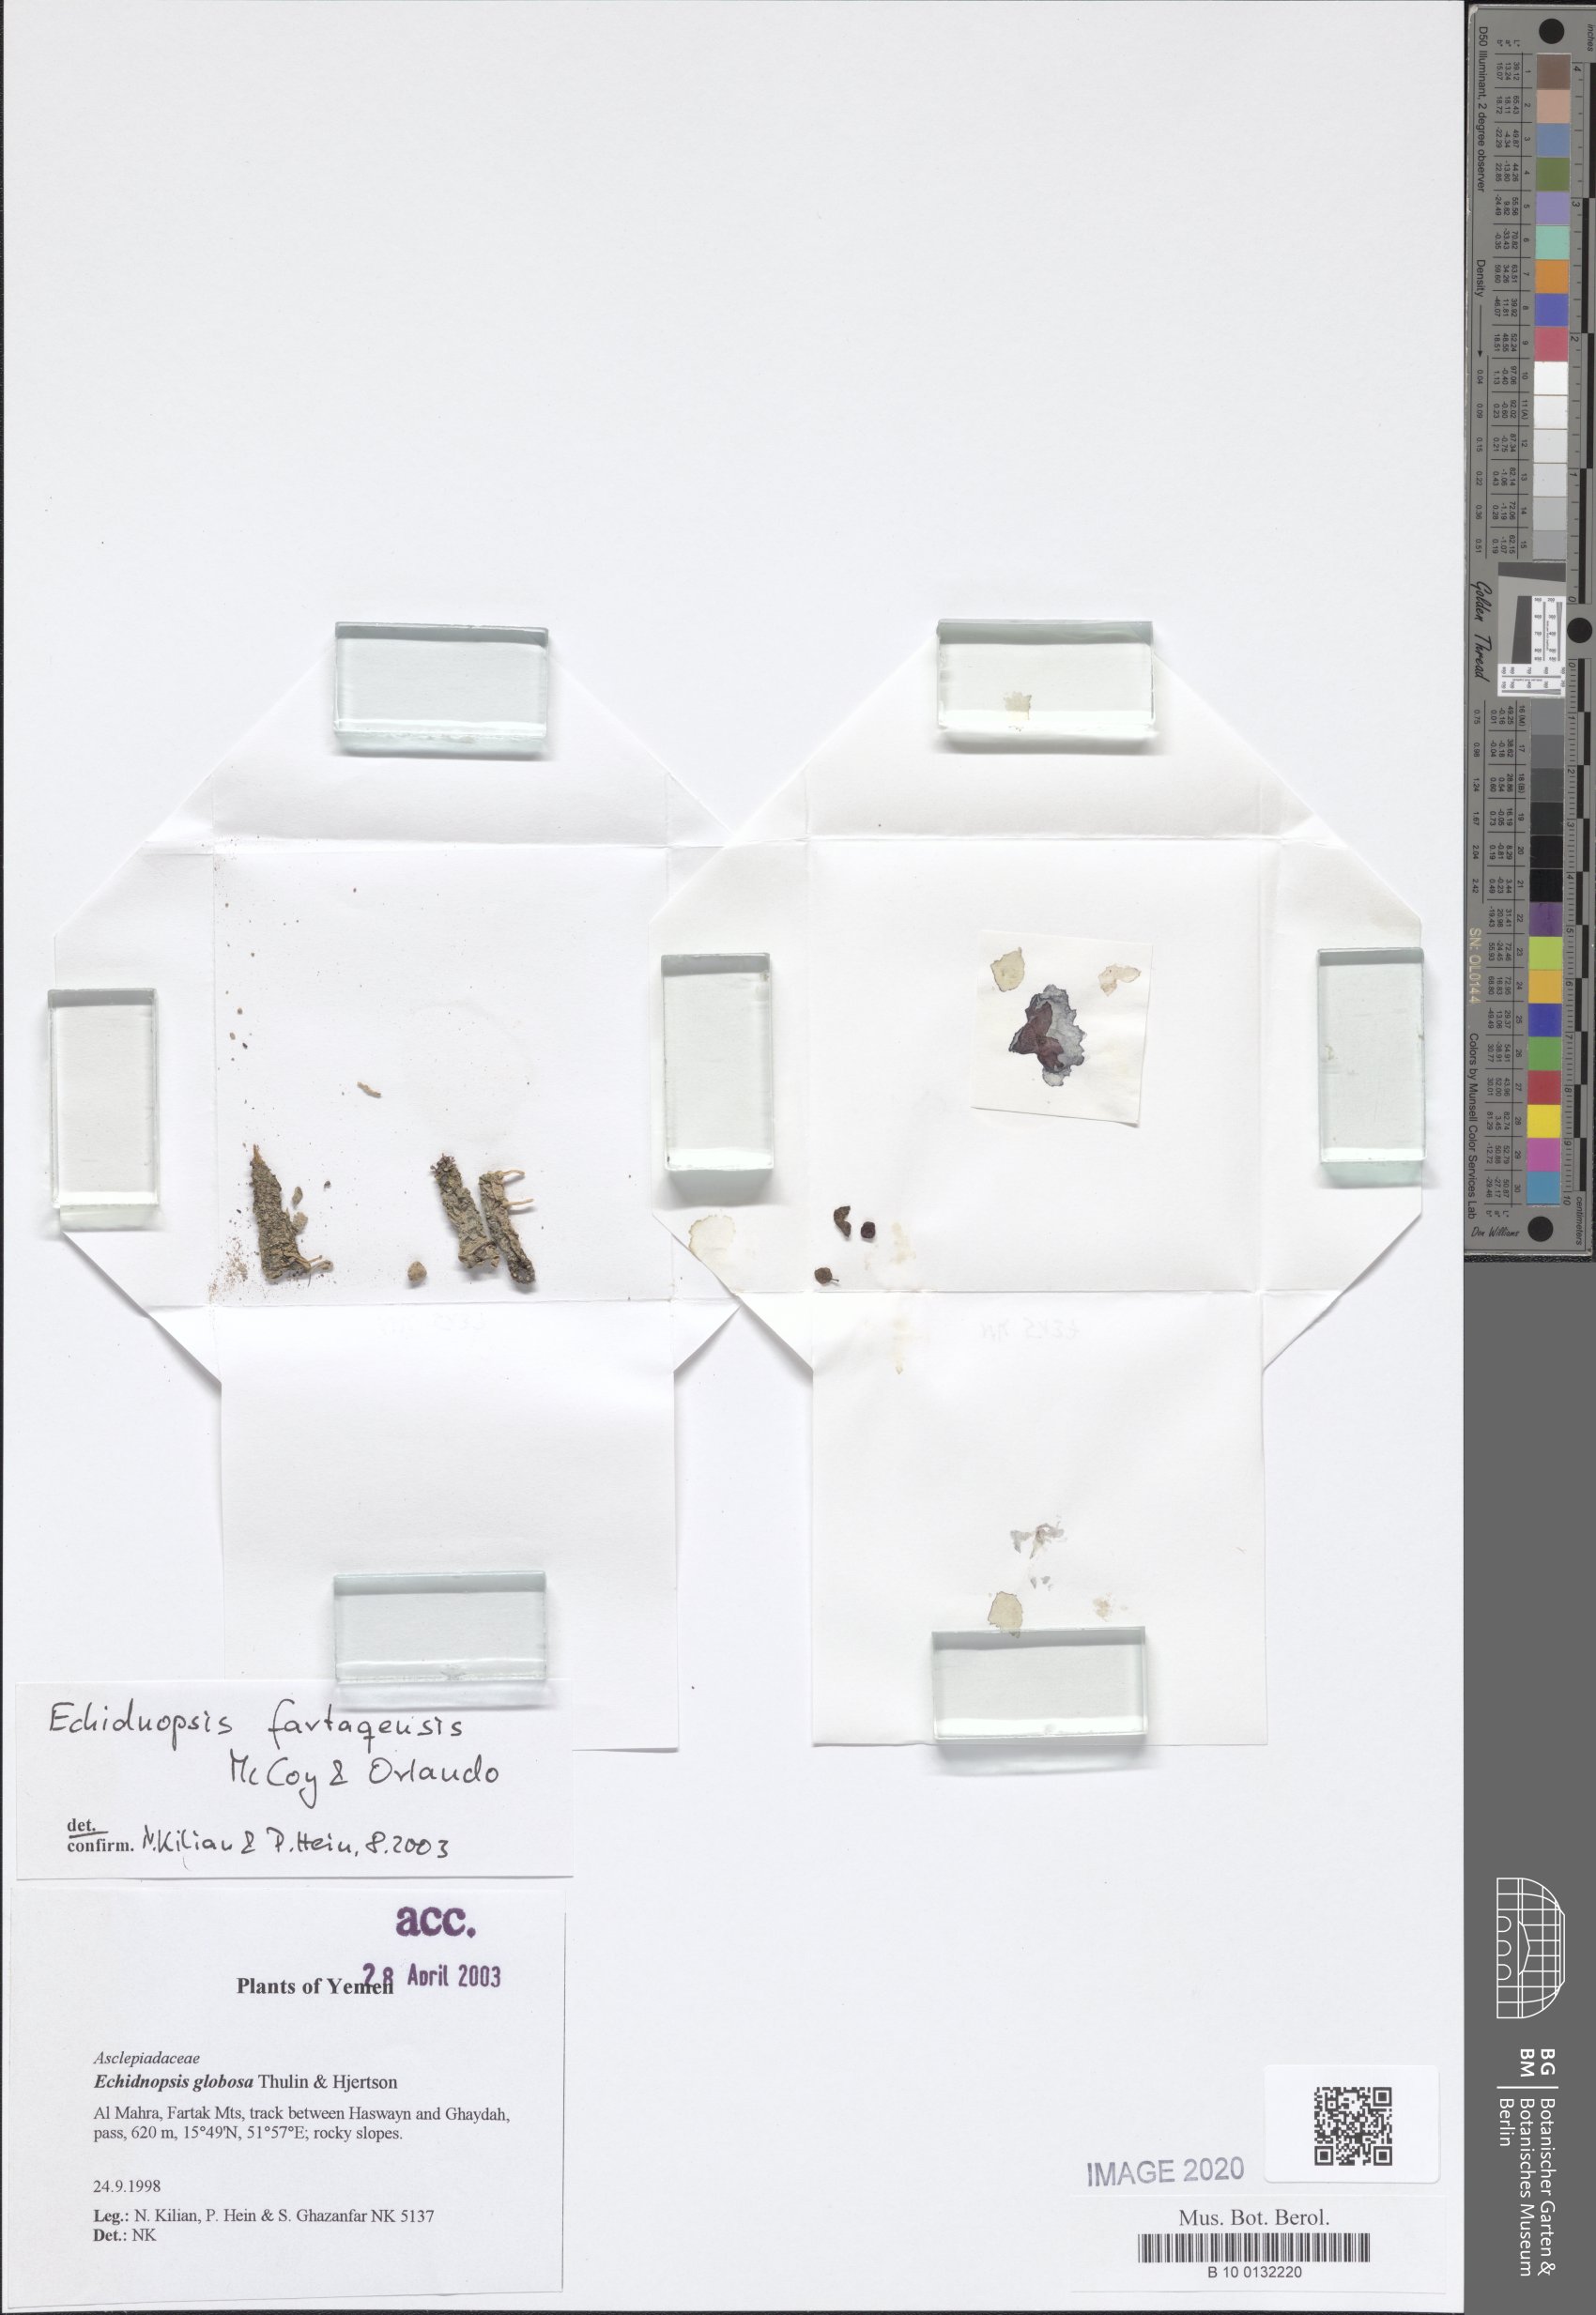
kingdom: Plantae
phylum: Tracheophyta
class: Magnoliopsida
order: Gentianales
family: Apocynaceae
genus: Ceropegia
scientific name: Ceropegia globosa
